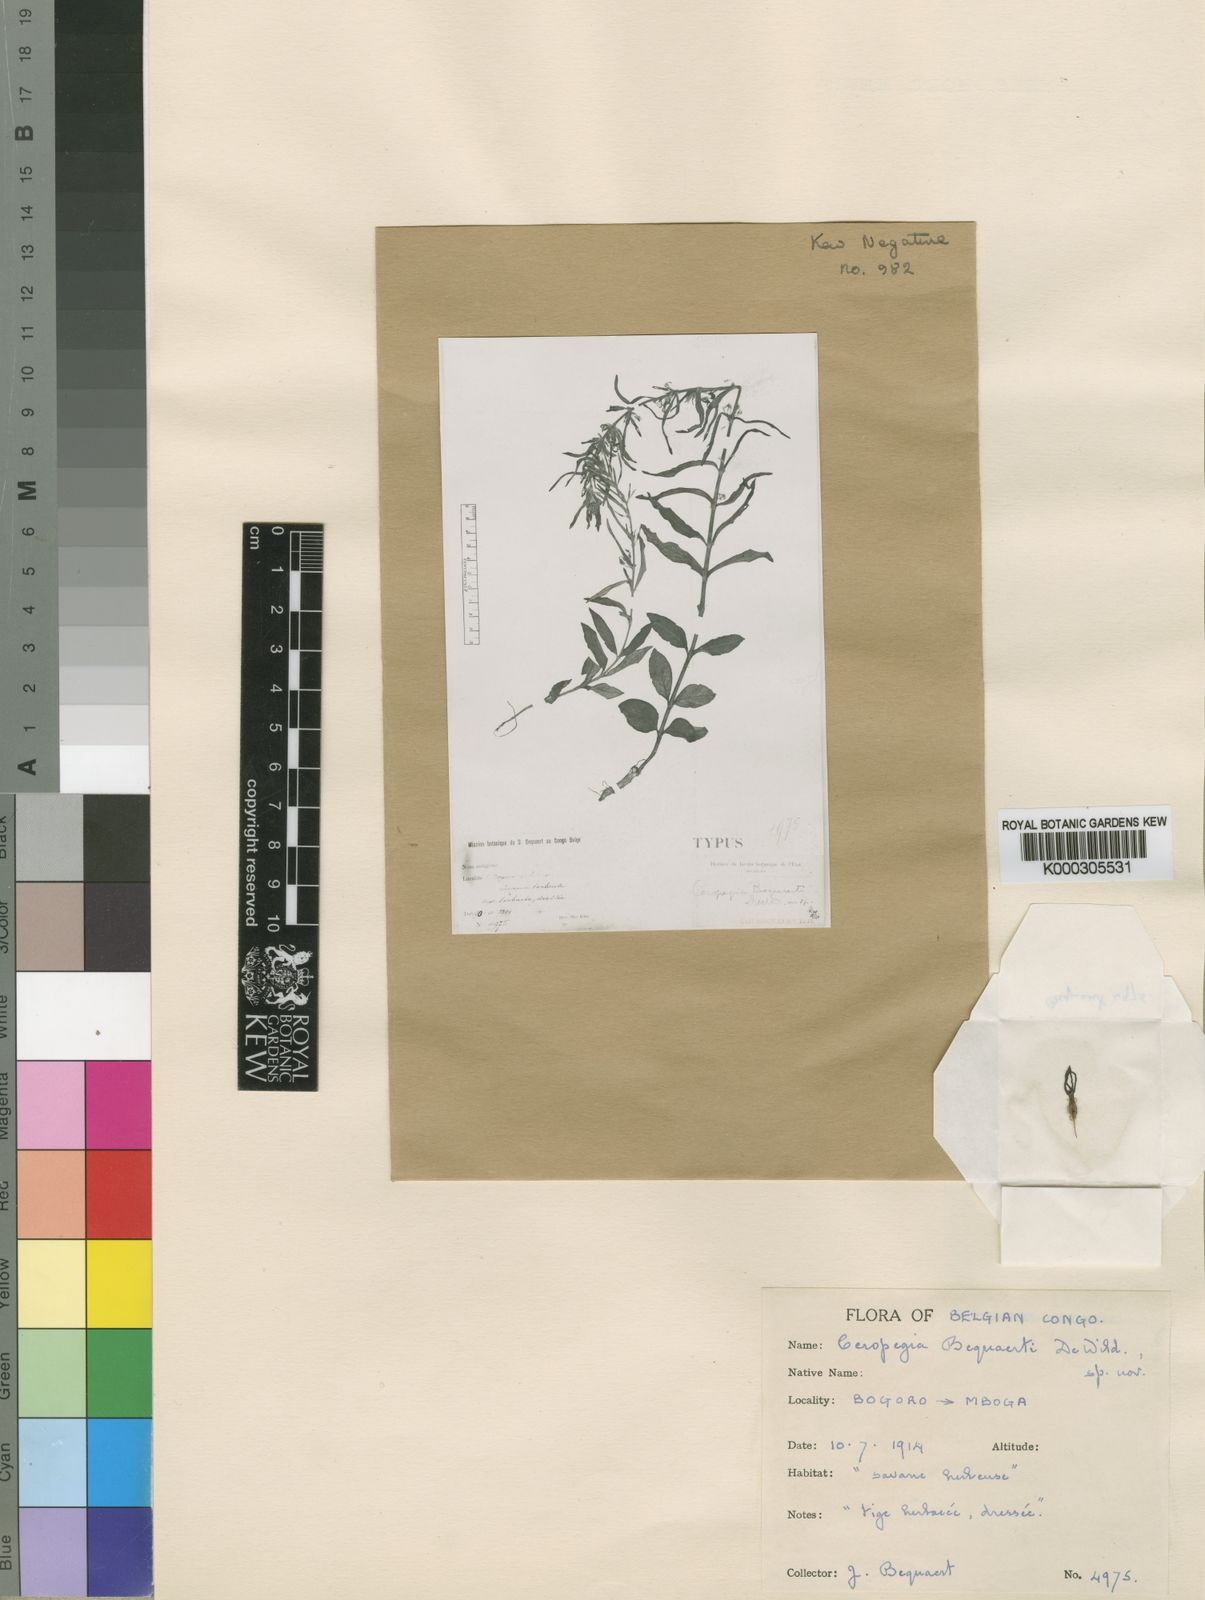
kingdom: Plantae
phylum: Tracheophyta
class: Magnoliopsida
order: Gentianales
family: Apocynaceae
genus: Ceropegia
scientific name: Ceropegia abyssinica
